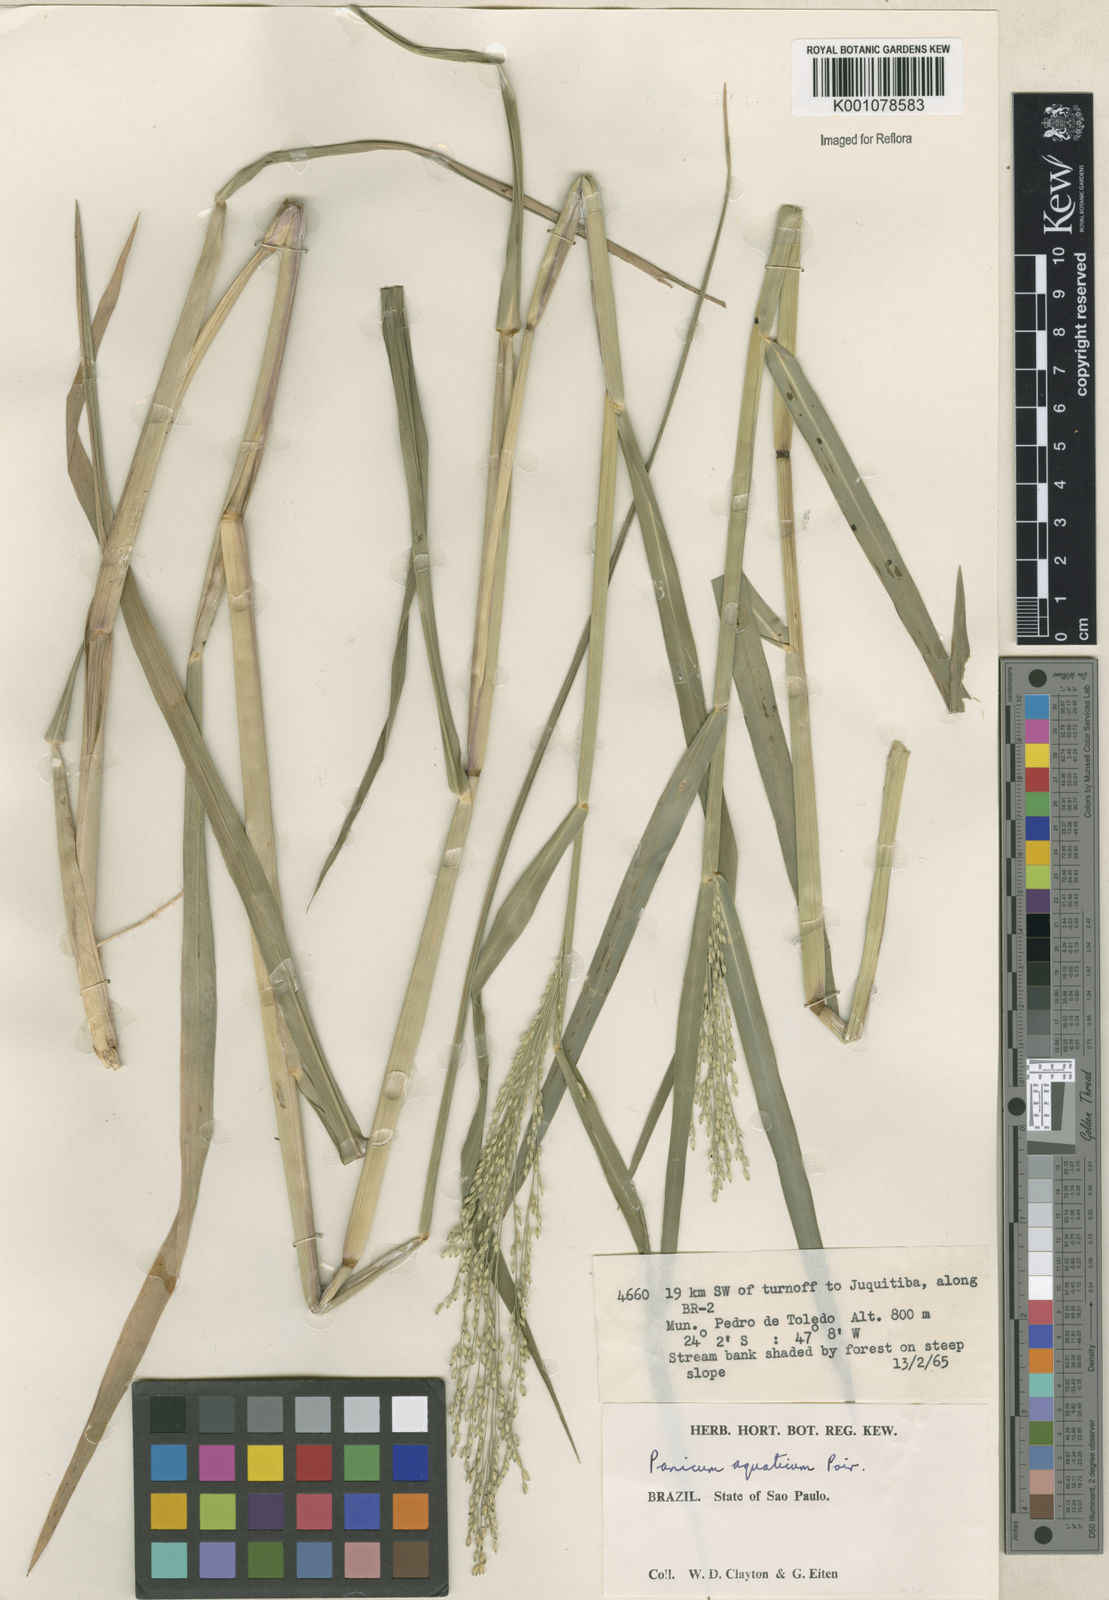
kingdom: Plantae
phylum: Tracheophyta
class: Liliopsida
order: Poales
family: Poaceae
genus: Panicum
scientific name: Panicum dichotomiflorum
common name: Autumn millet
